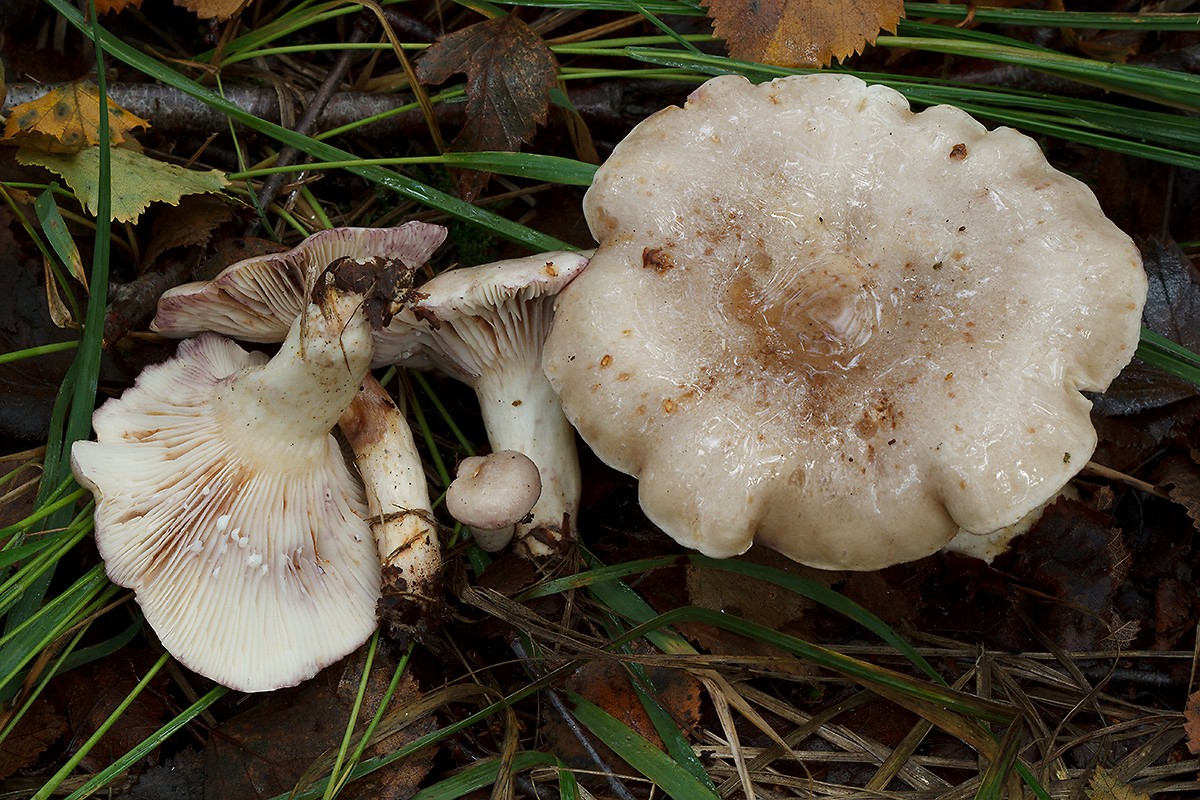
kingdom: Fungi
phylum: Basidiomycota
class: Agaricomycetes
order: Russulales
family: Russulaceae
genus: Lactarius
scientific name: Lactarius uvidus
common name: violetkødet mælkehat
